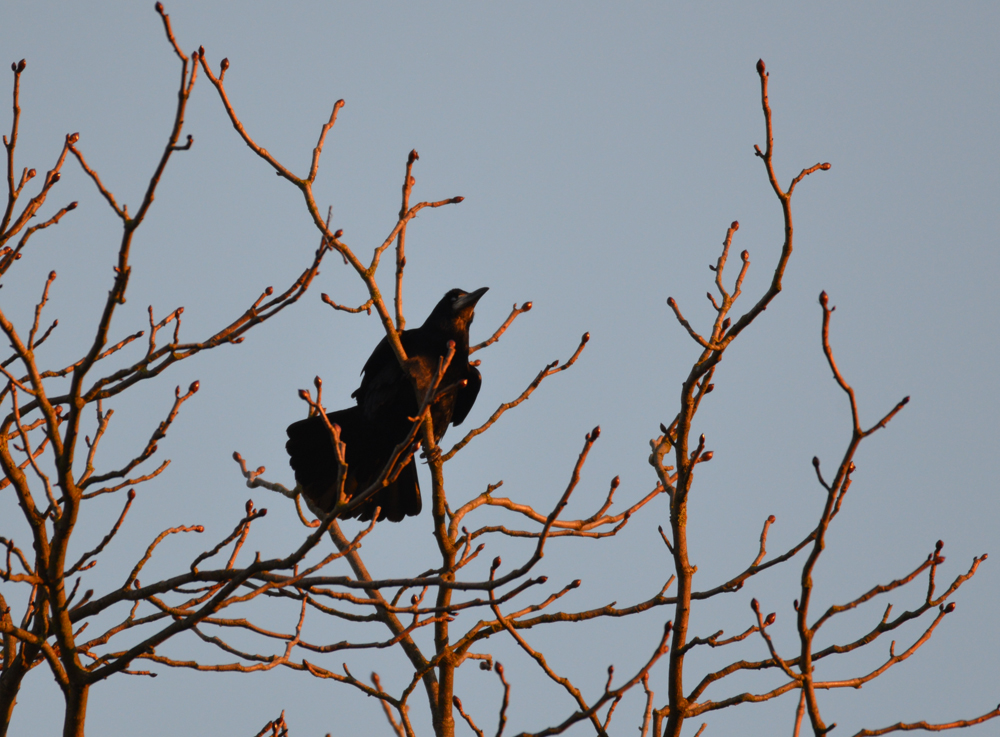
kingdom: Animalia
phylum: Chordata
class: Aves
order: Passeriformes
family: Corvidae
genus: Corvus
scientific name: Corvus frugilegus
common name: Rook
